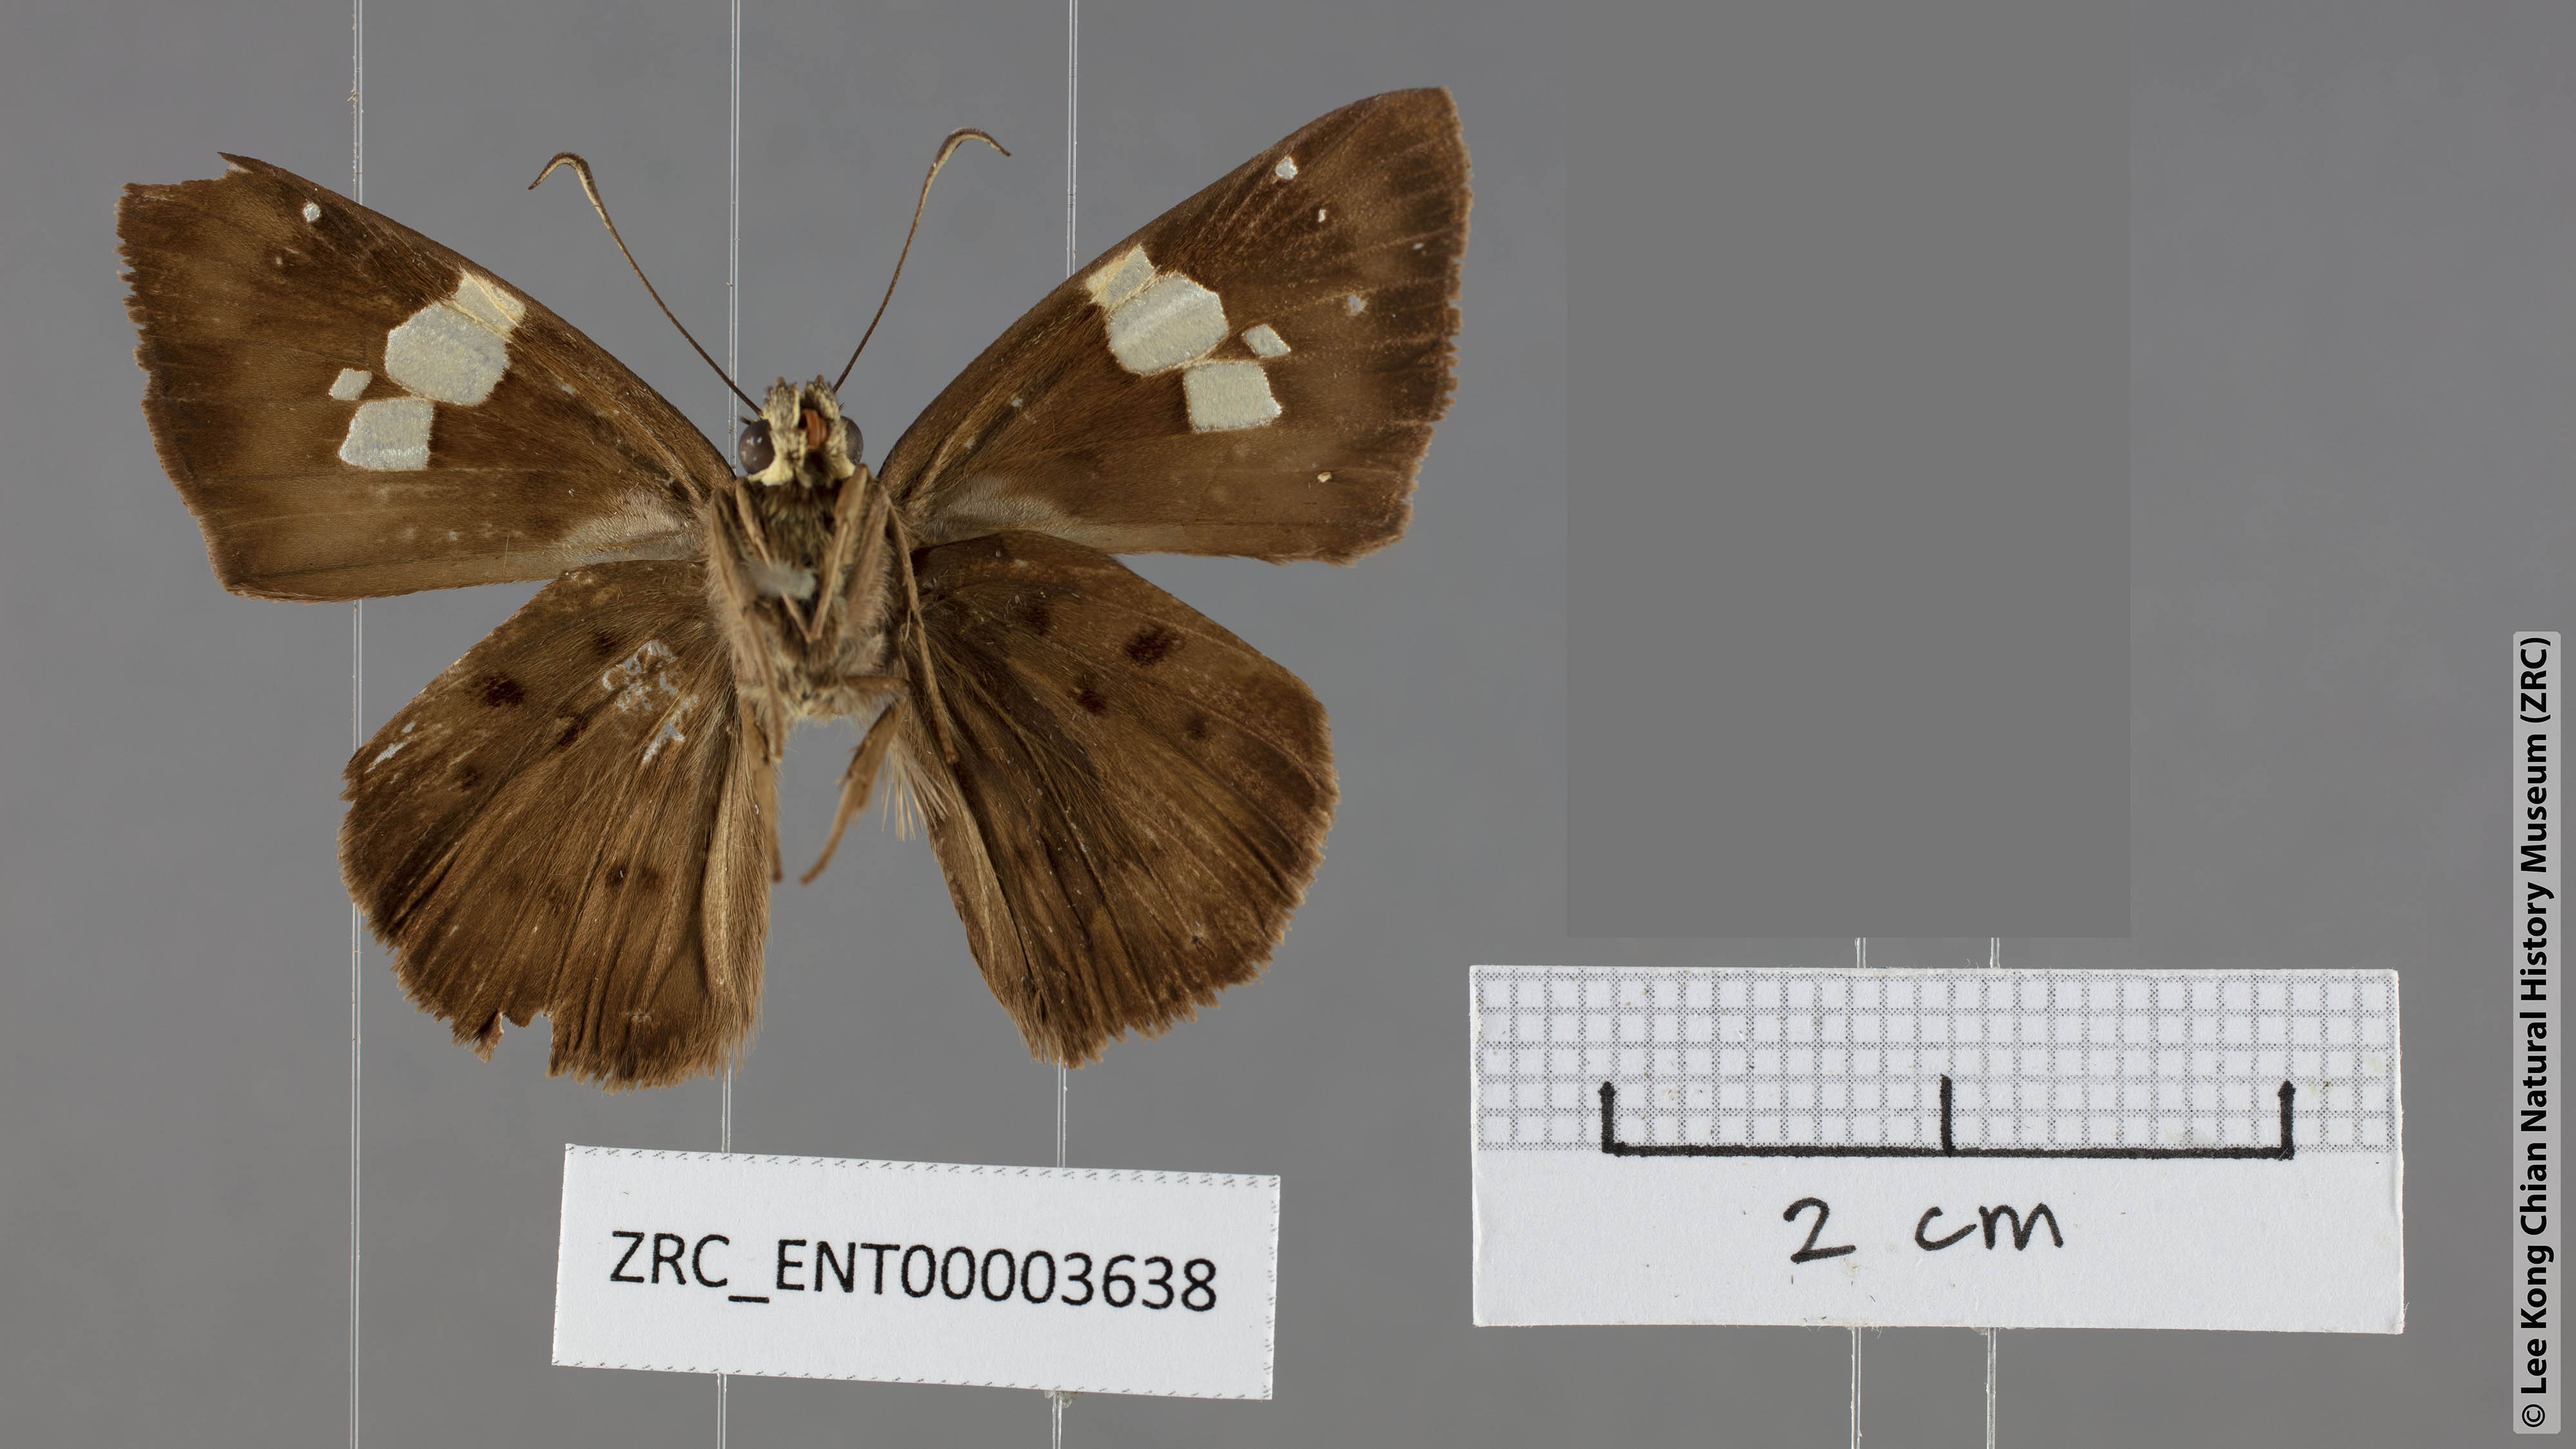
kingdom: Animalia
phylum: Arthropoda
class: Insecta
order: Lepidoptera
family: Hesperiidae
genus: Coladenia
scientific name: Coladenia laxmi
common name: Gray pied flat
